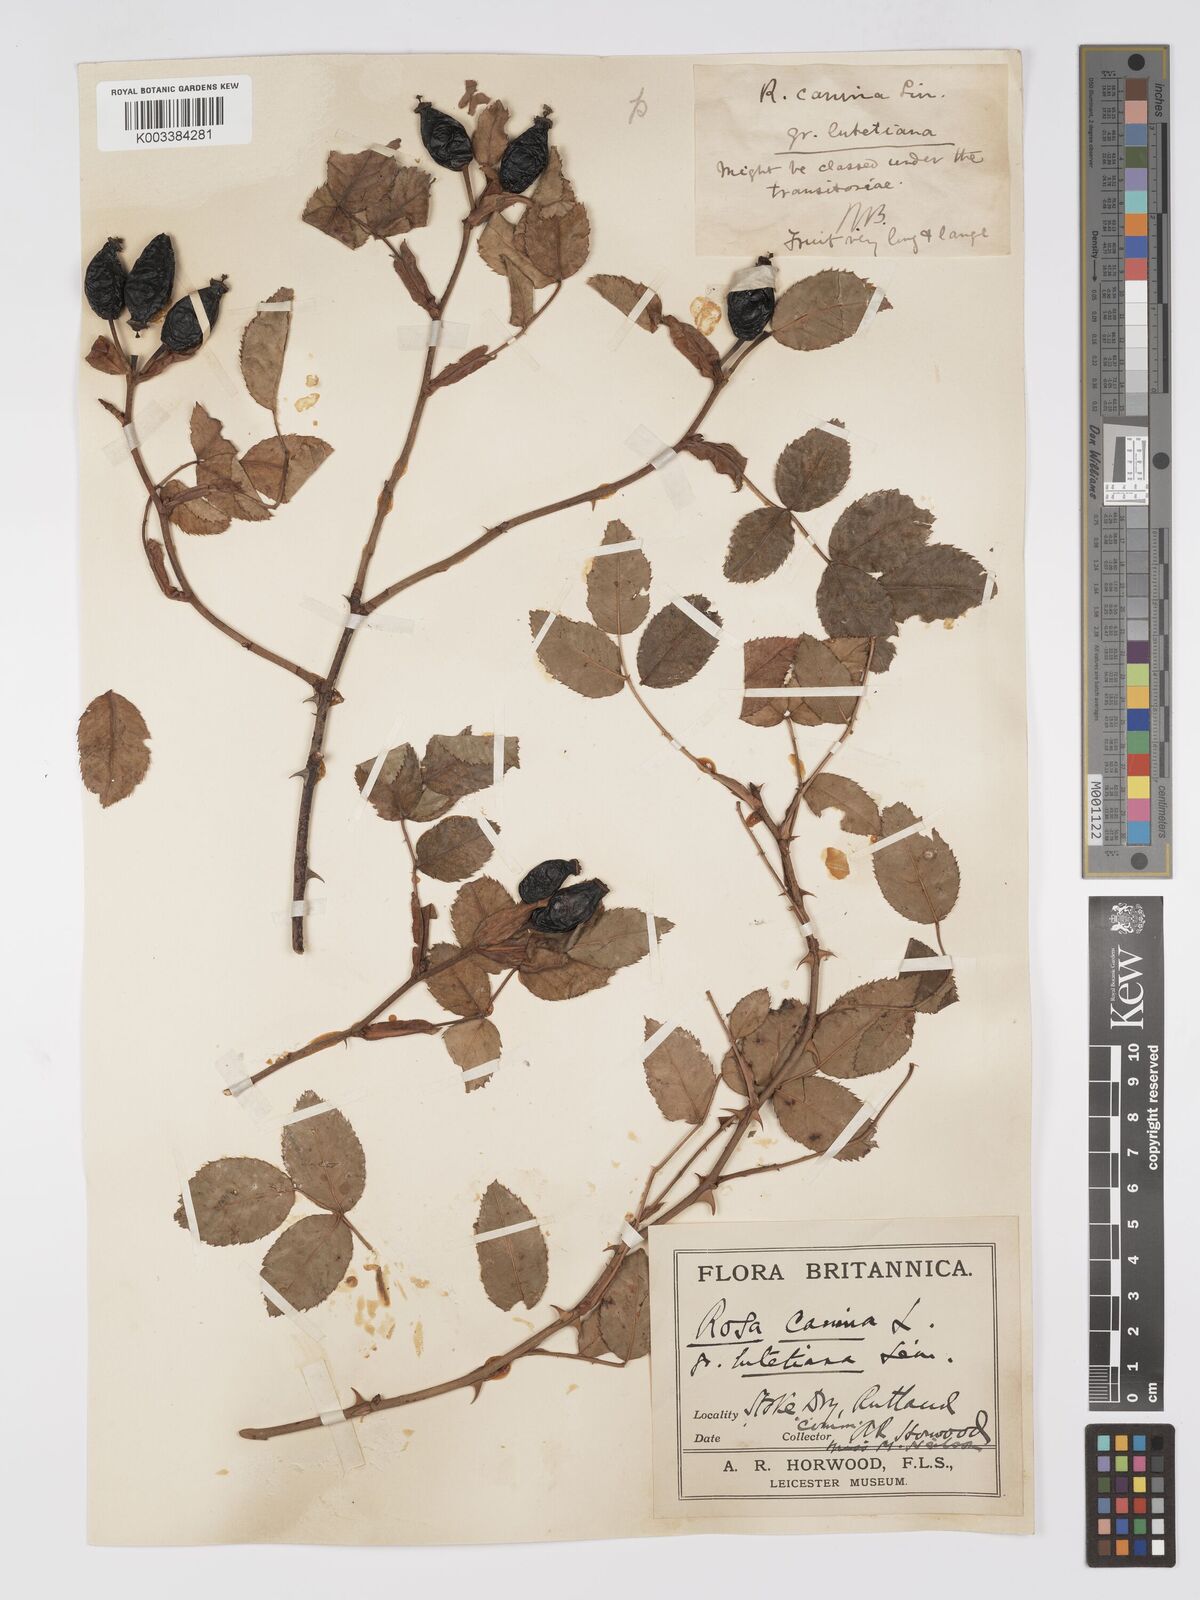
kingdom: Plantae
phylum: Tracheophyta
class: Magnoliopsida
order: Rosales
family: Rosaceae
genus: Rosa
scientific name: Rosa canina
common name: Dog rose
